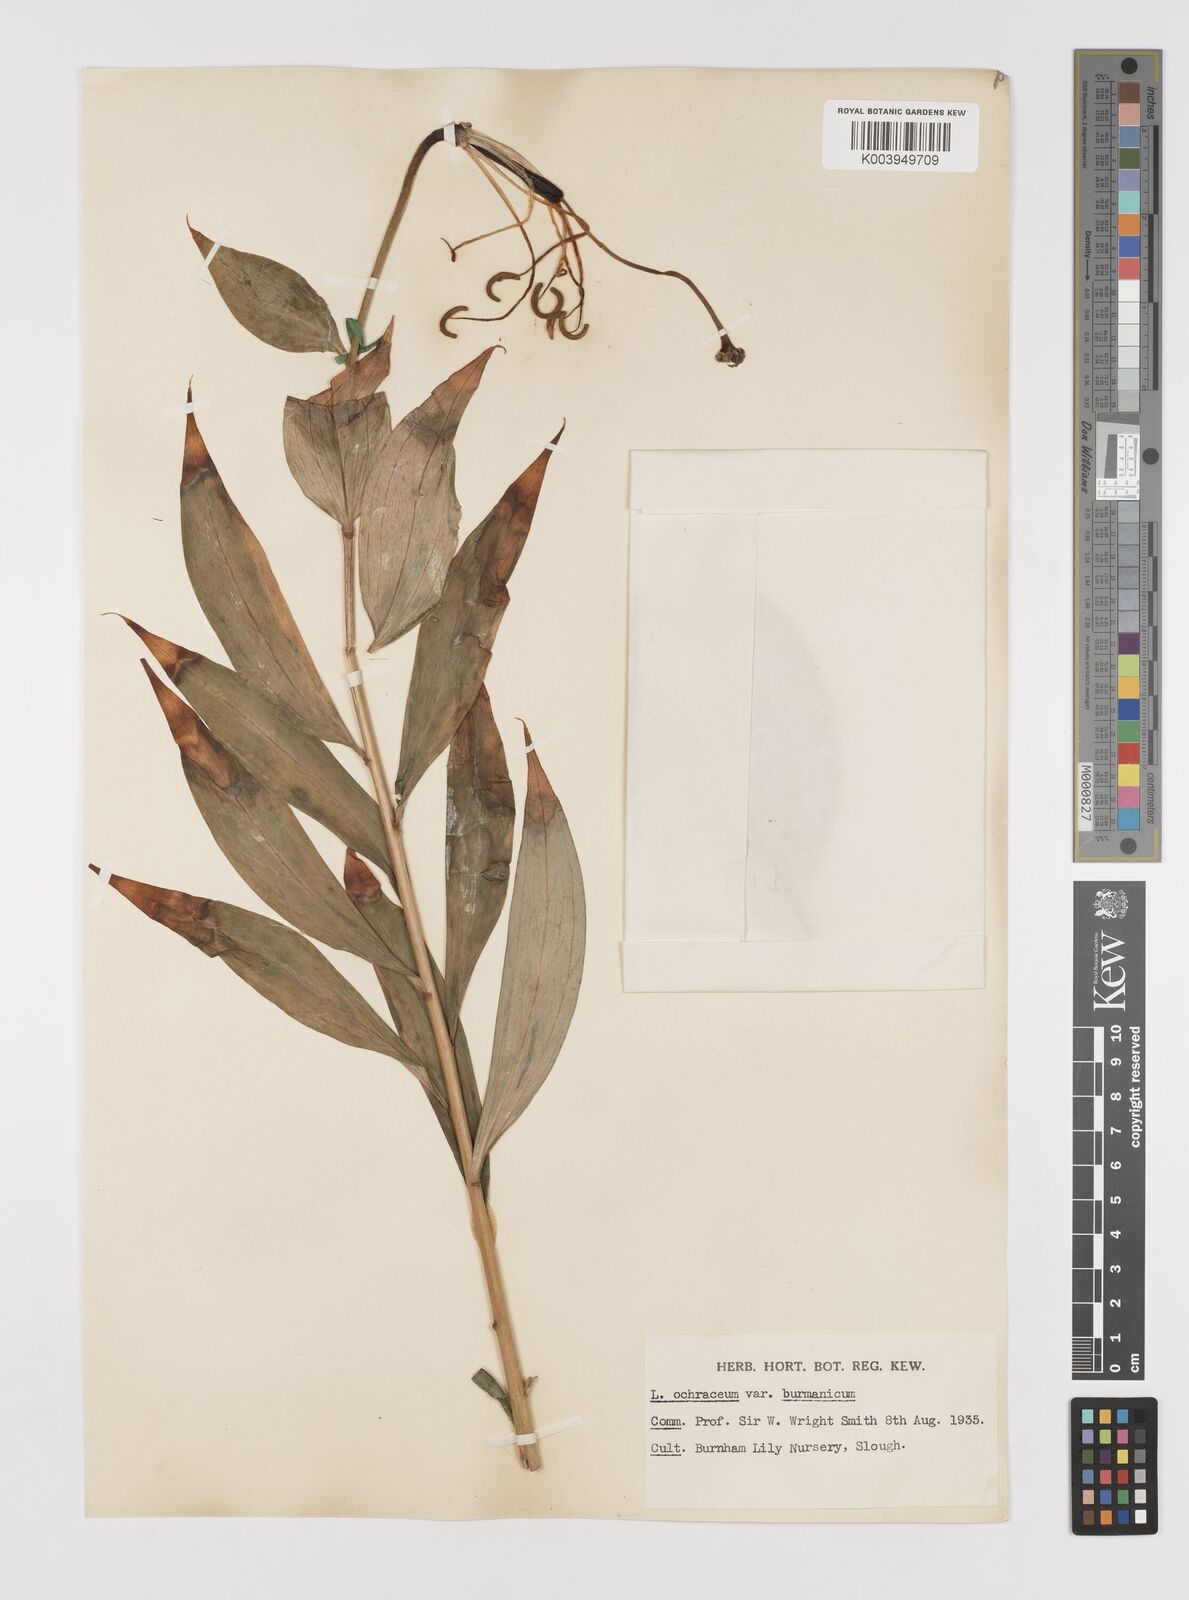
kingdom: Plantae
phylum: Tracheophyta
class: Liliopsida
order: Liliales
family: Liliaceae
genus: Lilium
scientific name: Lilium primulinum
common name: Ochre lily
